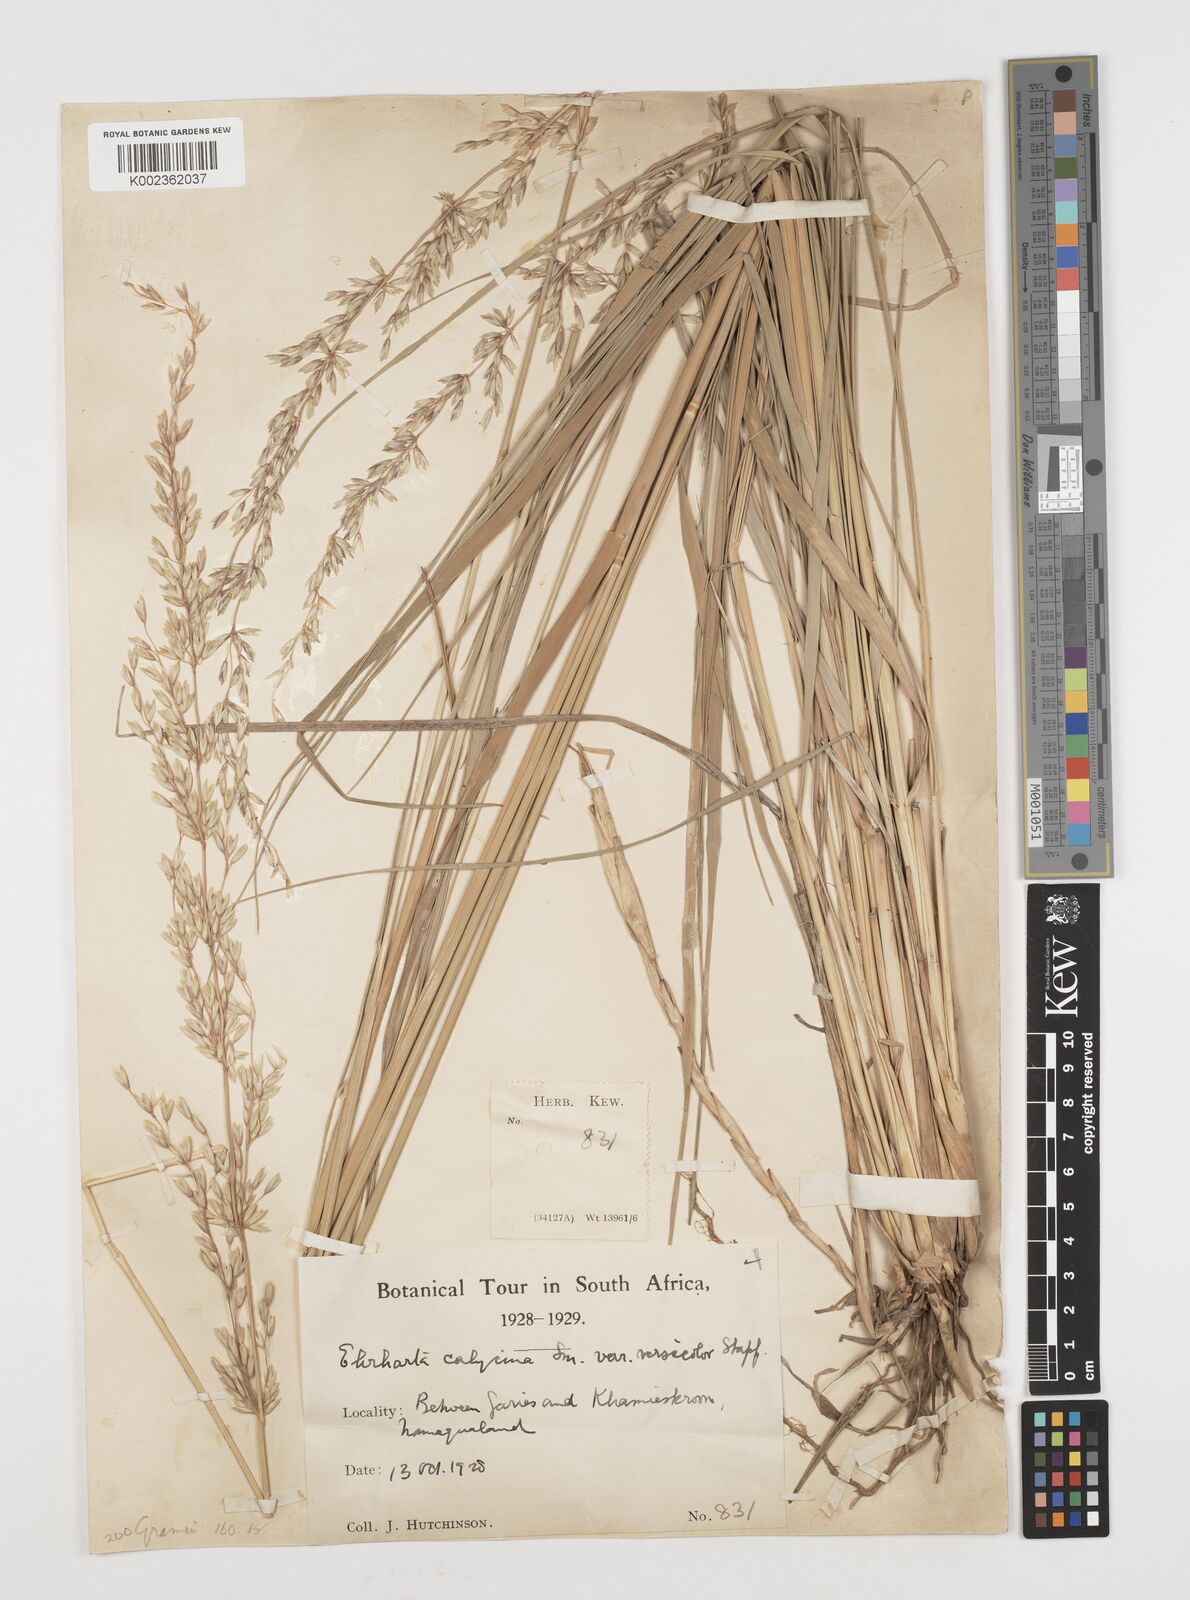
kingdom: Plantae
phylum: Tracheophyta
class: Liliopsida
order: Poales
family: Poaceae
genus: Ehrharta
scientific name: Ehrharta calycina
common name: Perennial veldtgrass
